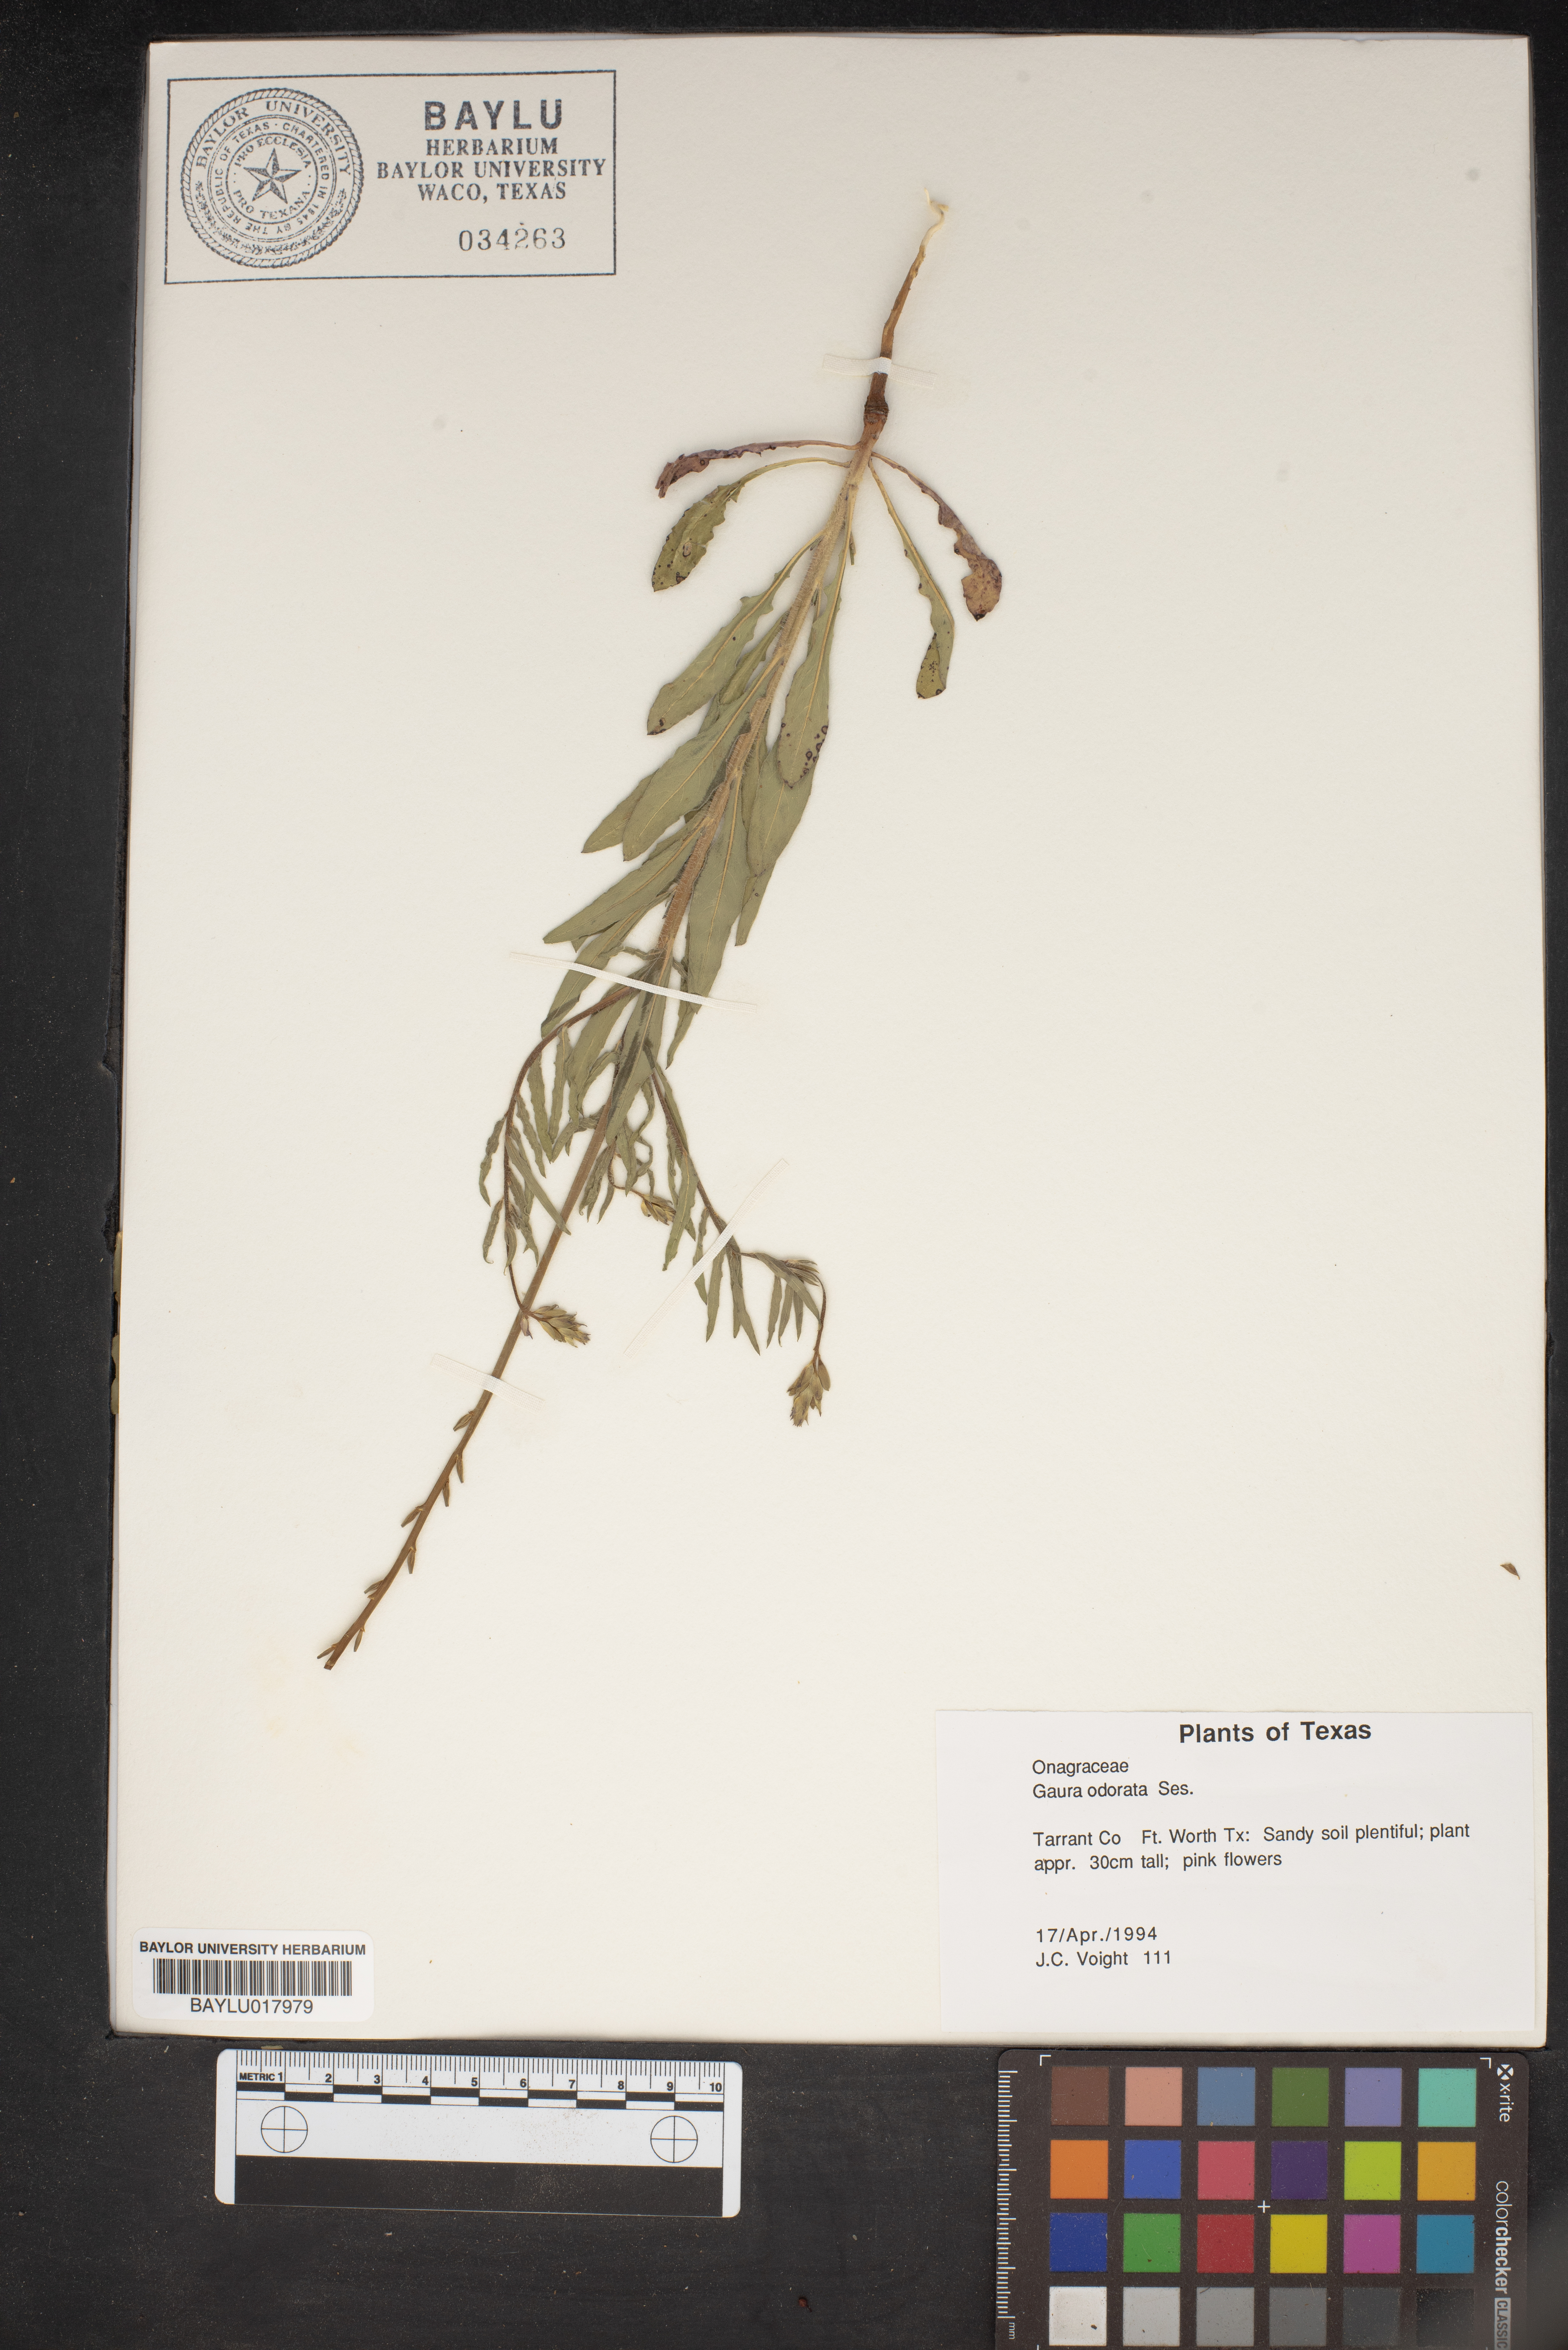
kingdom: Plantae
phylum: Tracheophyta
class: Magnoliopsida
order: Myrtales
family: Onagraceae
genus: Oenothera
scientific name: Oenothera
